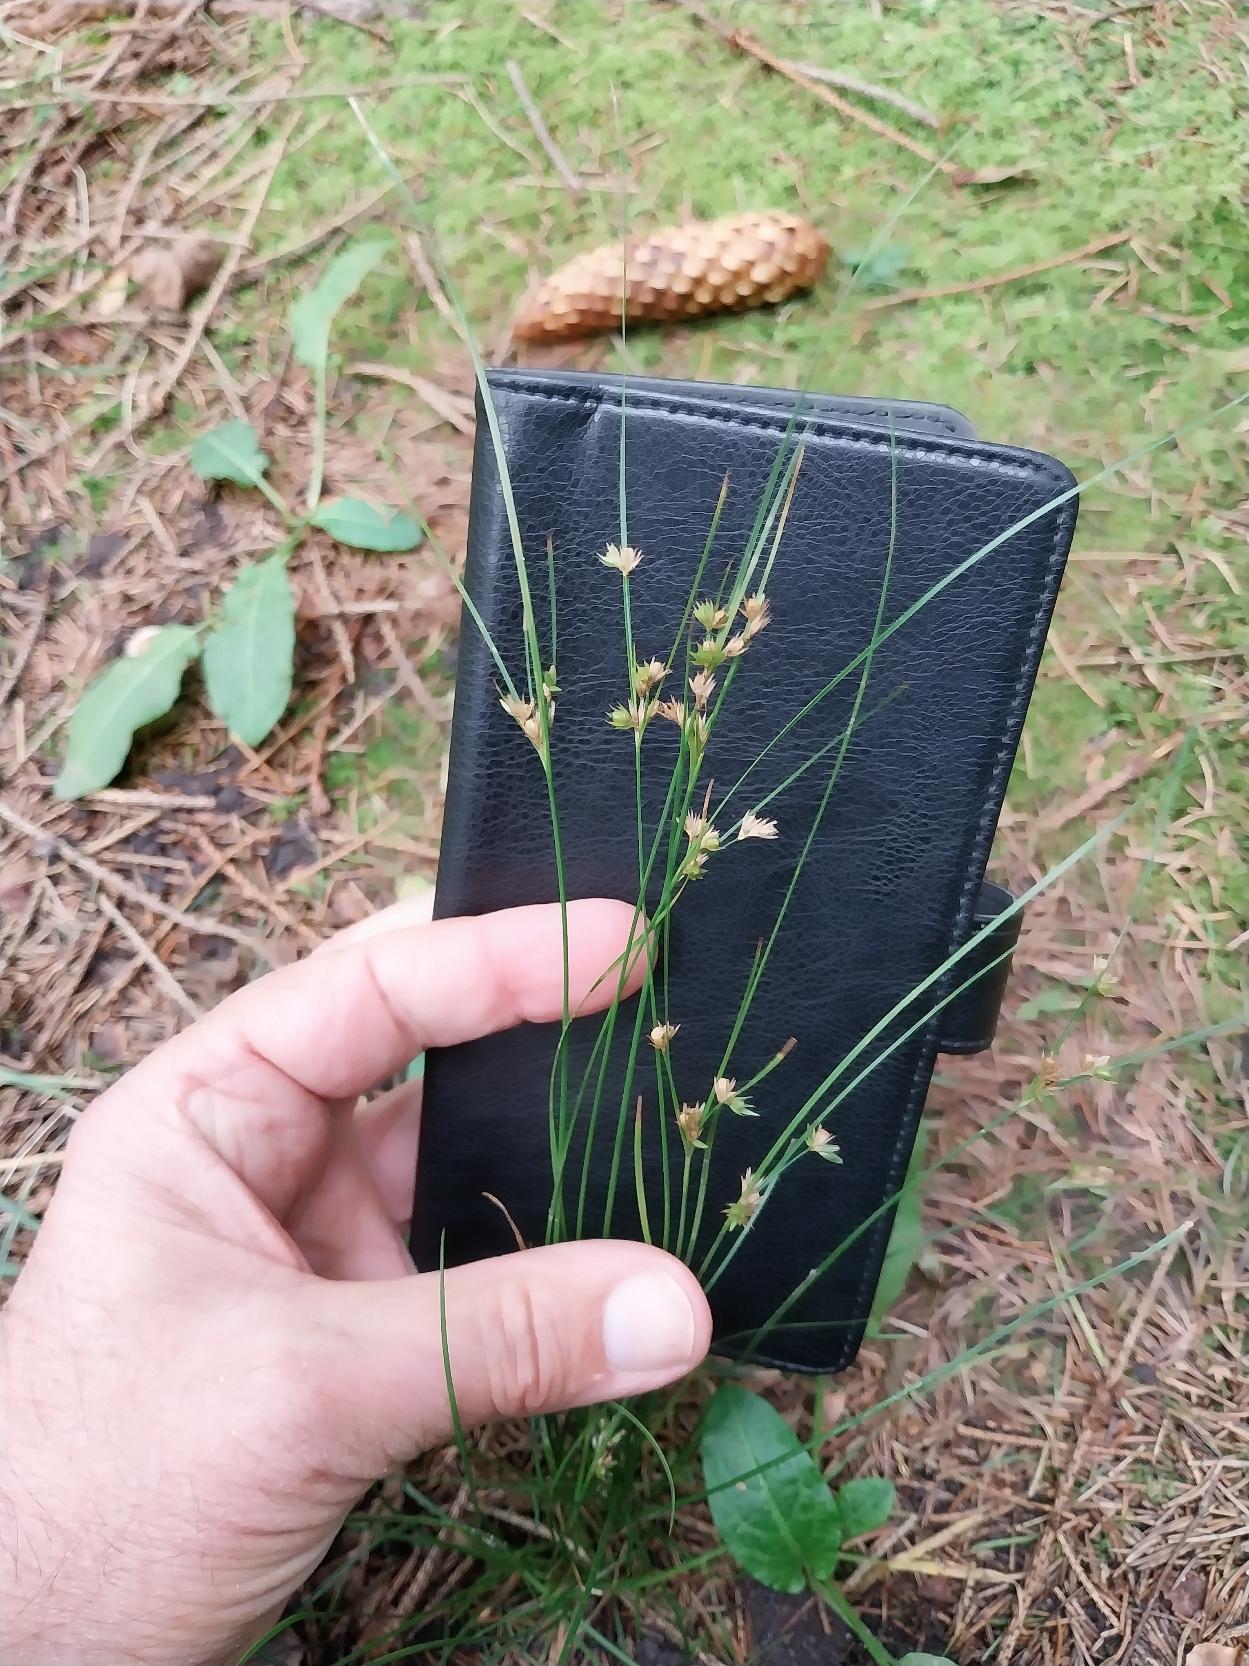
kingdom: Plantae
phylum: Tracheophyta
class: Liliopsida
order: Poales
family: Juncaceae
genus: Juncus
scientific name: Juncus tenuis
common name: Tue-siv
